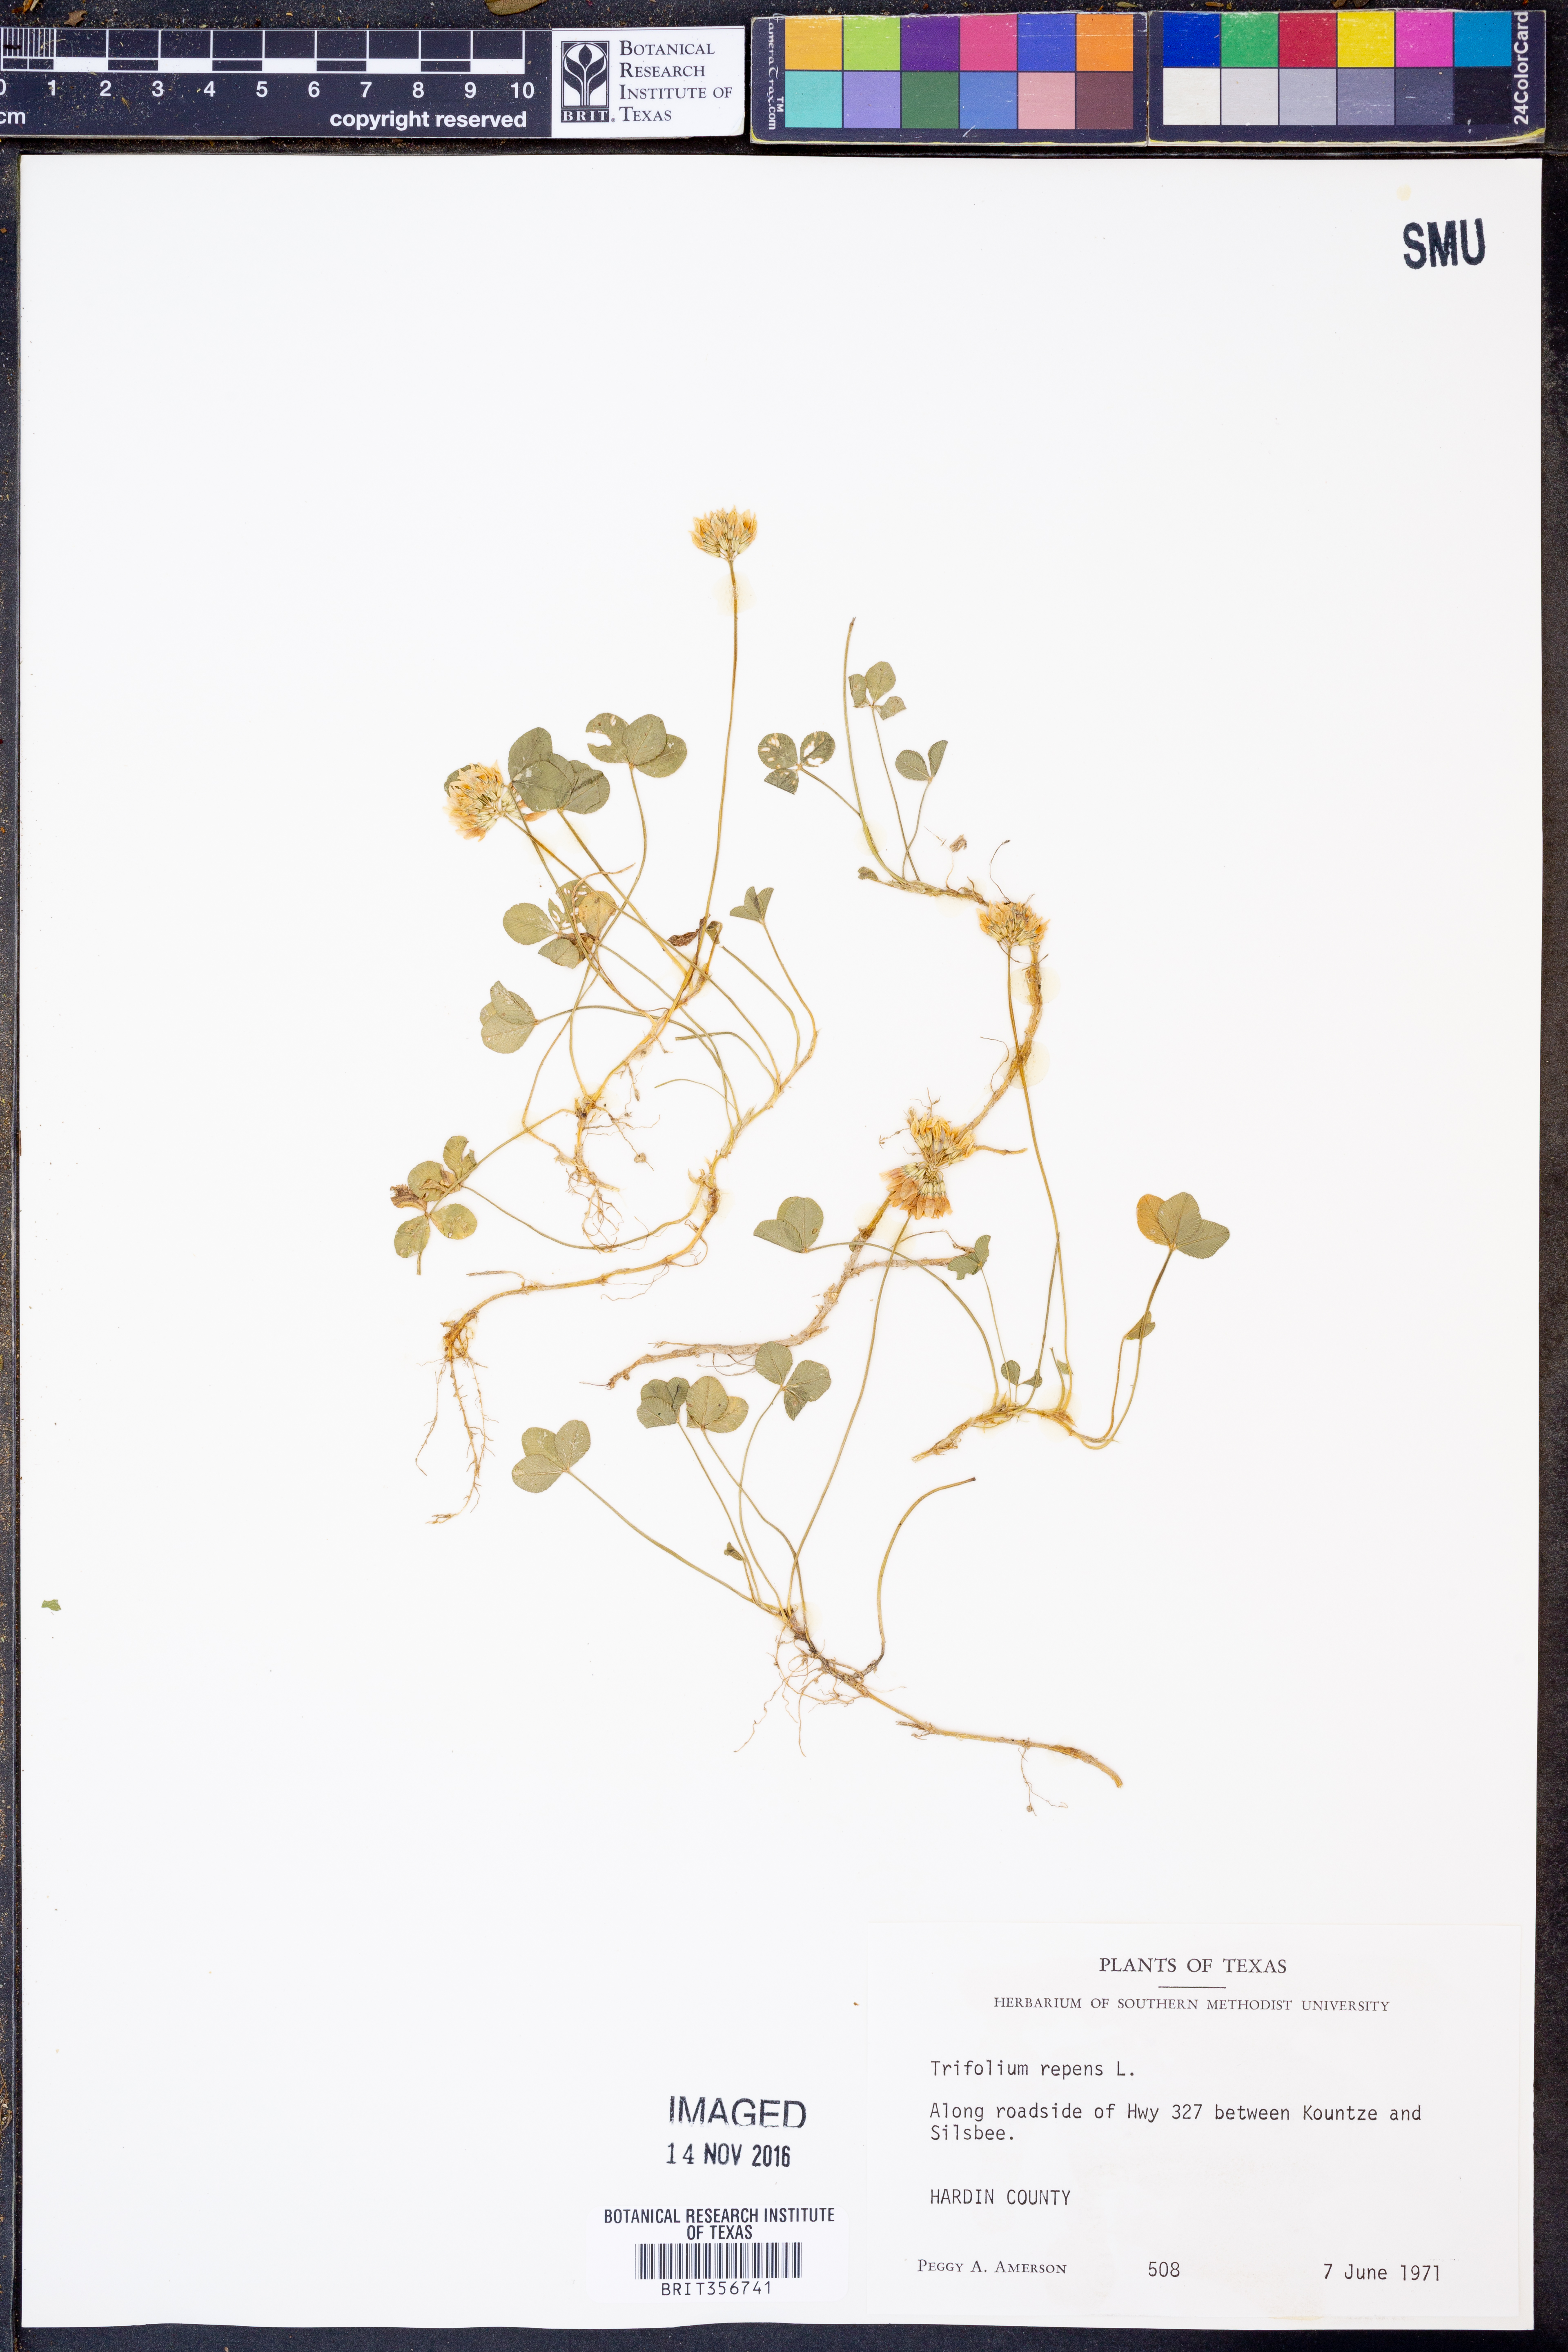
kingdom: Plantae
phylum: Tracheophyta
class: Magnoliopsida
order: Fabales
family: Fabaceae
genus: Trifolium
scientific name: Trifolium repens
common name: White clover
